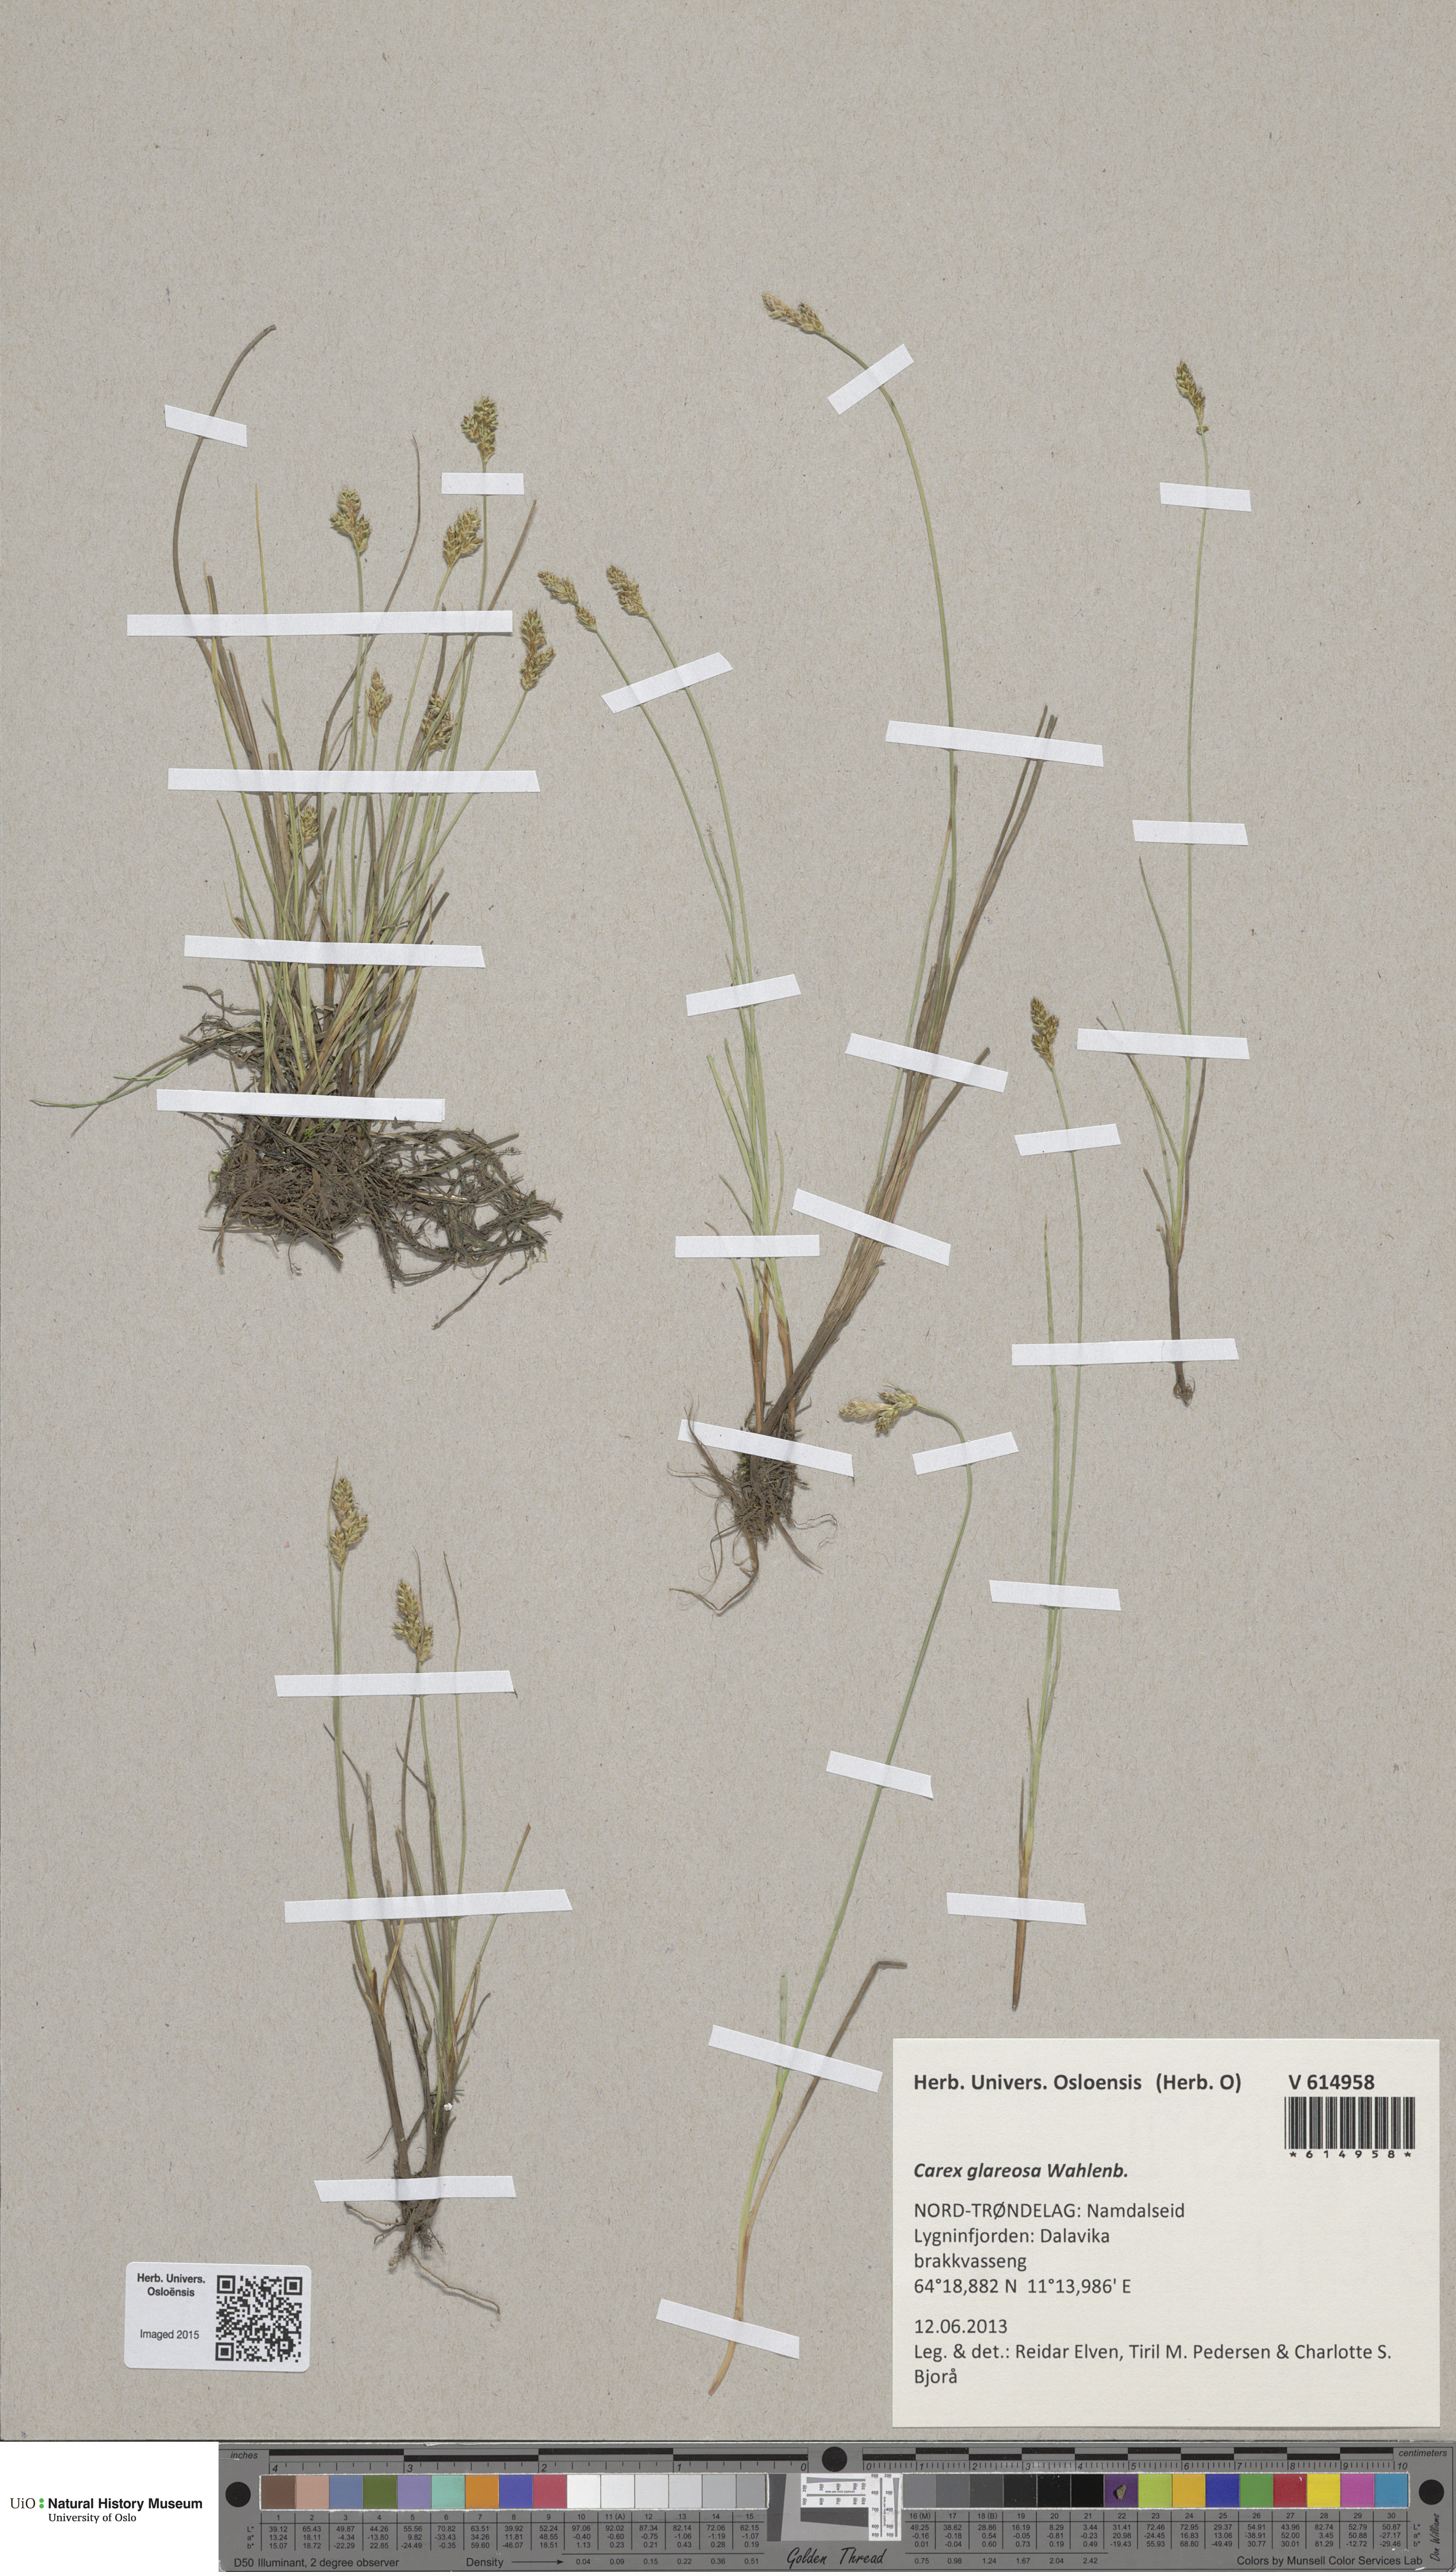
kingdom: Plantae
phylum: Tracheophyta
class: Liliopsida
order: Poales
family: Cyperaceae
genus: Carex
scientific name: Carex glareosa
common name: Clustered sedge
